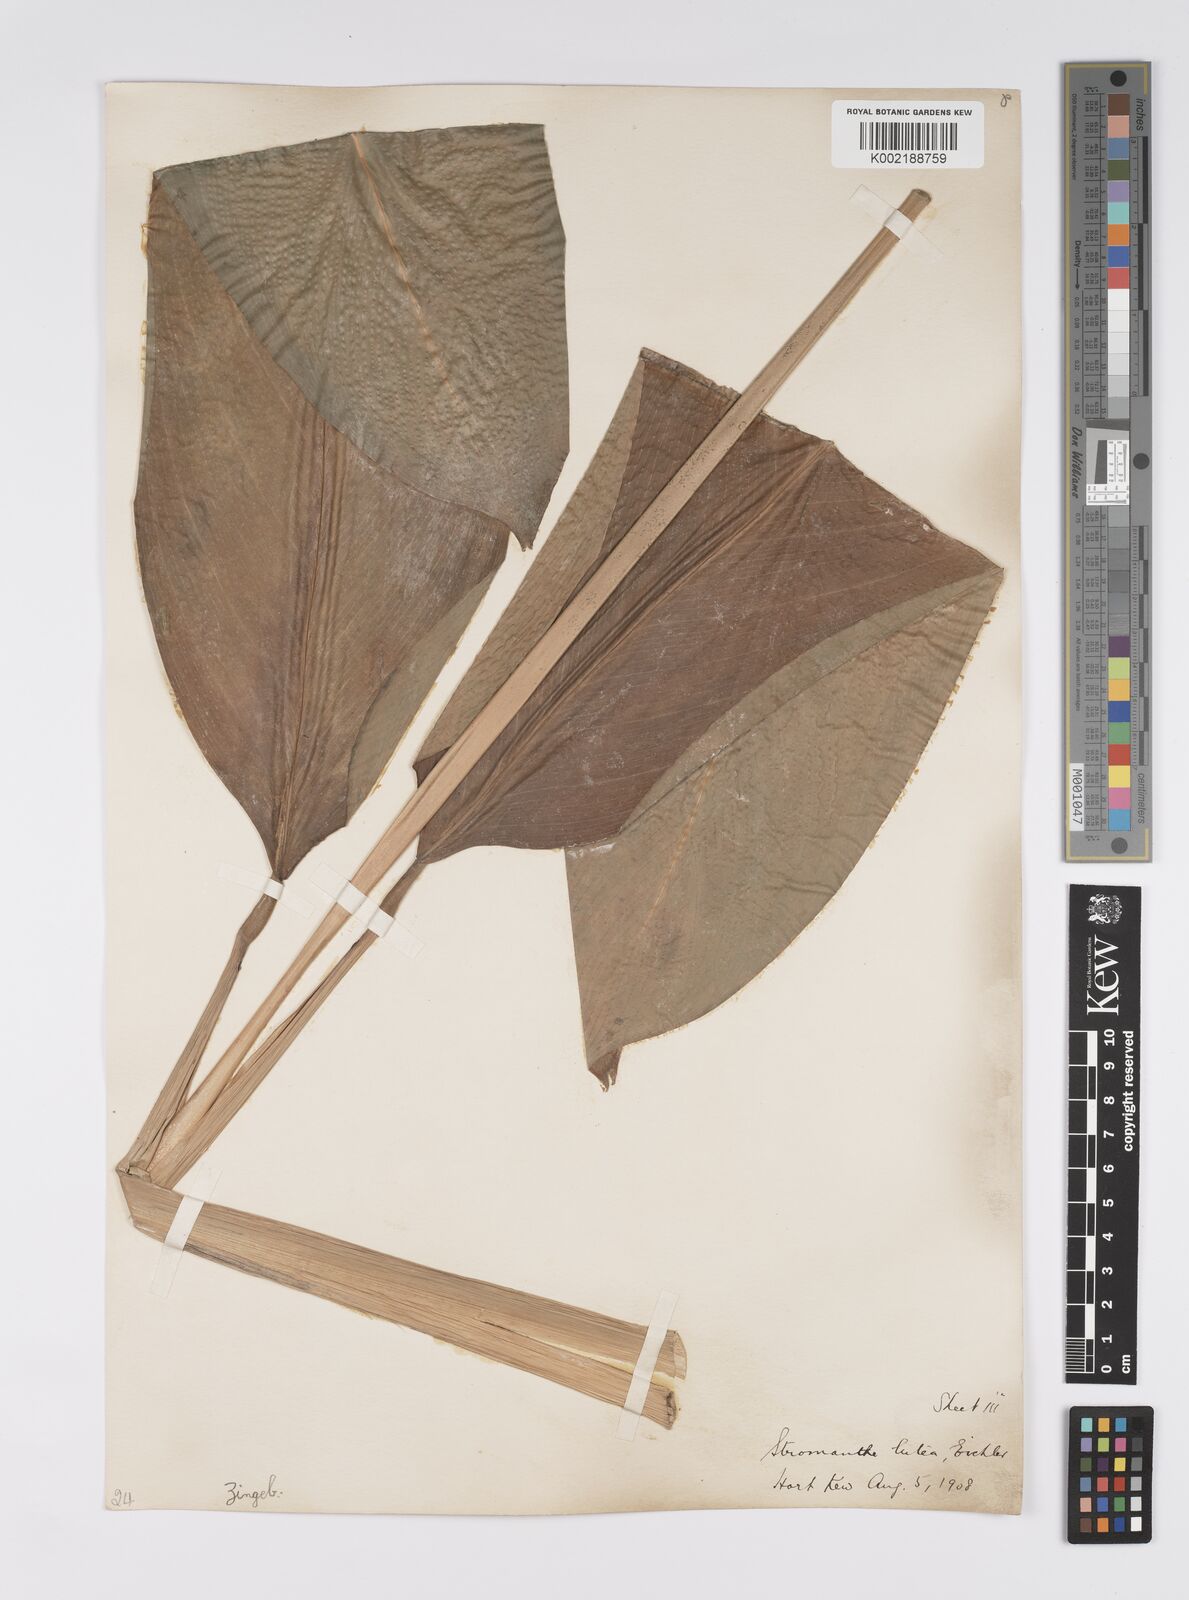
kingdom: Plantae
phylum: Tracheophyta
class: Liliopsida
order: Zingiberales
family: Marantaceae
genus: Stromanthe
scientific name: Stromanthe jacquinii
